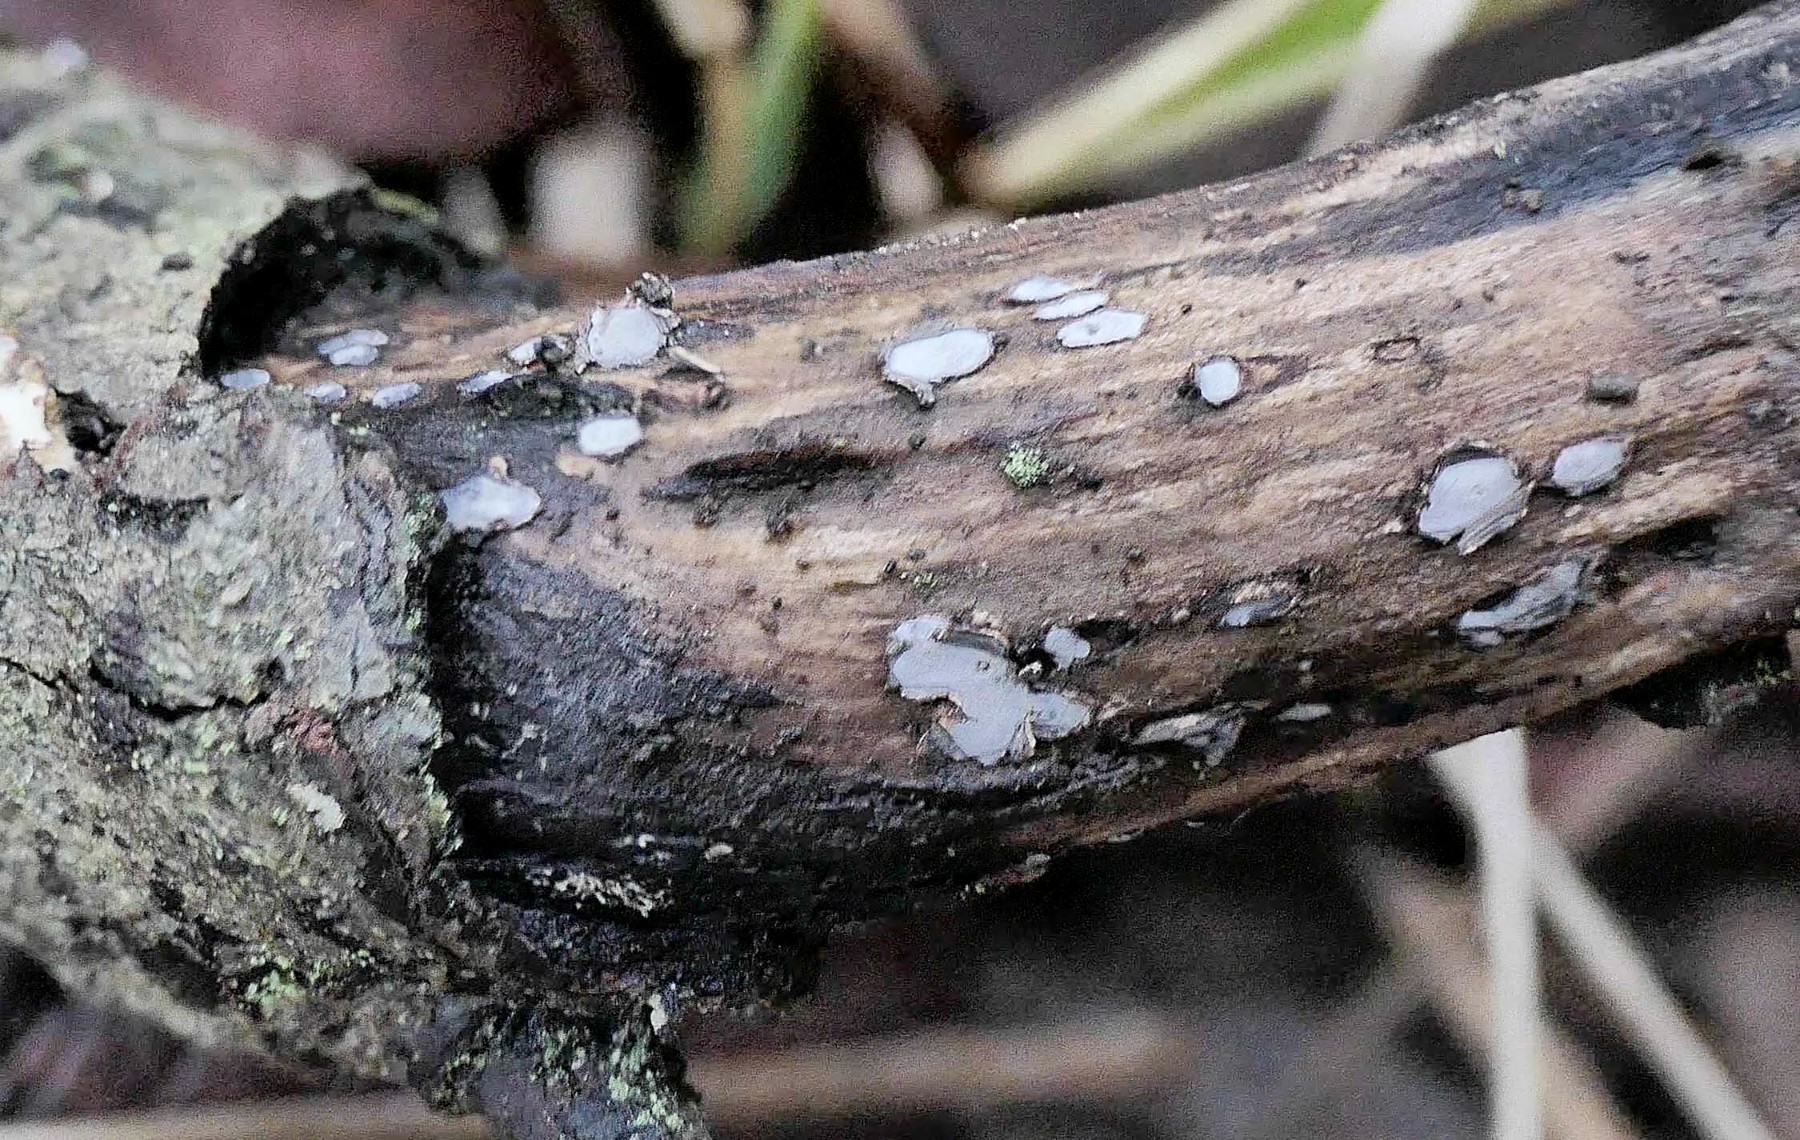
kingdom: Fungi
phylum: Ascomycota
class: Leotiomycetes
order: Chaetomellales
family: Marthamycetaceae
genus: Propolis
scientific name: Propolis farinosa
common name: almindelig vedsprængerskive
